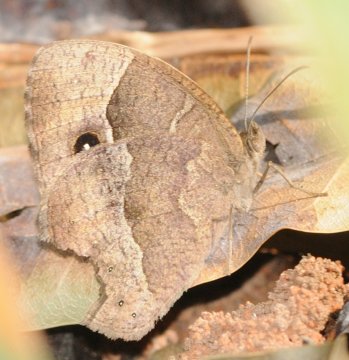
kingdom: Animalia
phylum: Arthropoda
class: Insecta
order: Lepidoptera
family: Nymphalidae
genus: Bicyclus
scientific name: Bicyclus cottrelli
